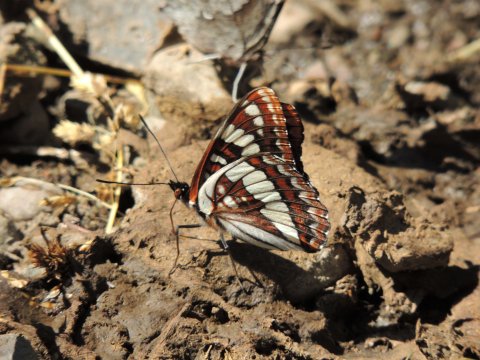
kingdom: Animalia
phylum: Arthropoda
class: Insecta
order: Lepidoptera
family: Nymphalidae
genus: Limenitis
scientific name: Limenitis lorquini
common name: Lorquin's Admiral
